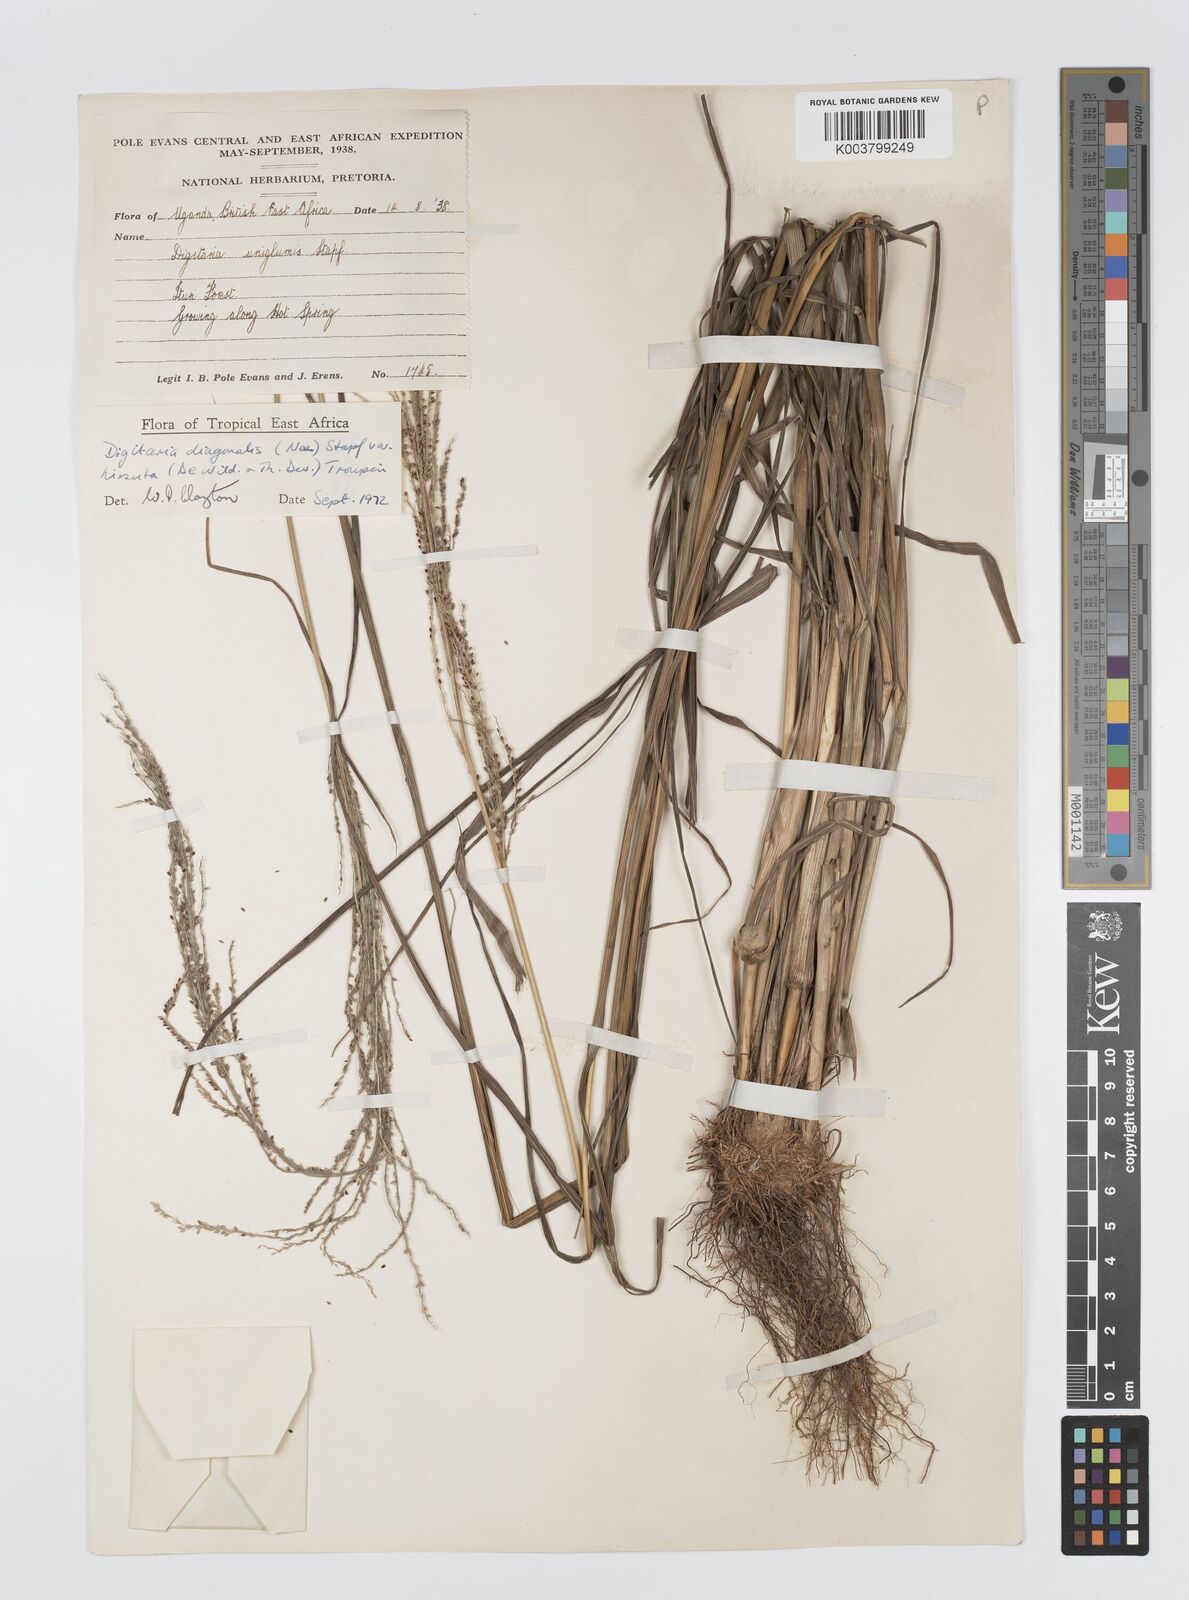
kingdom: Plantae
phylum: Tracheophyta
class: Liliopsida
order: Poales
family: Poaceae
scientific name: Poaceae
